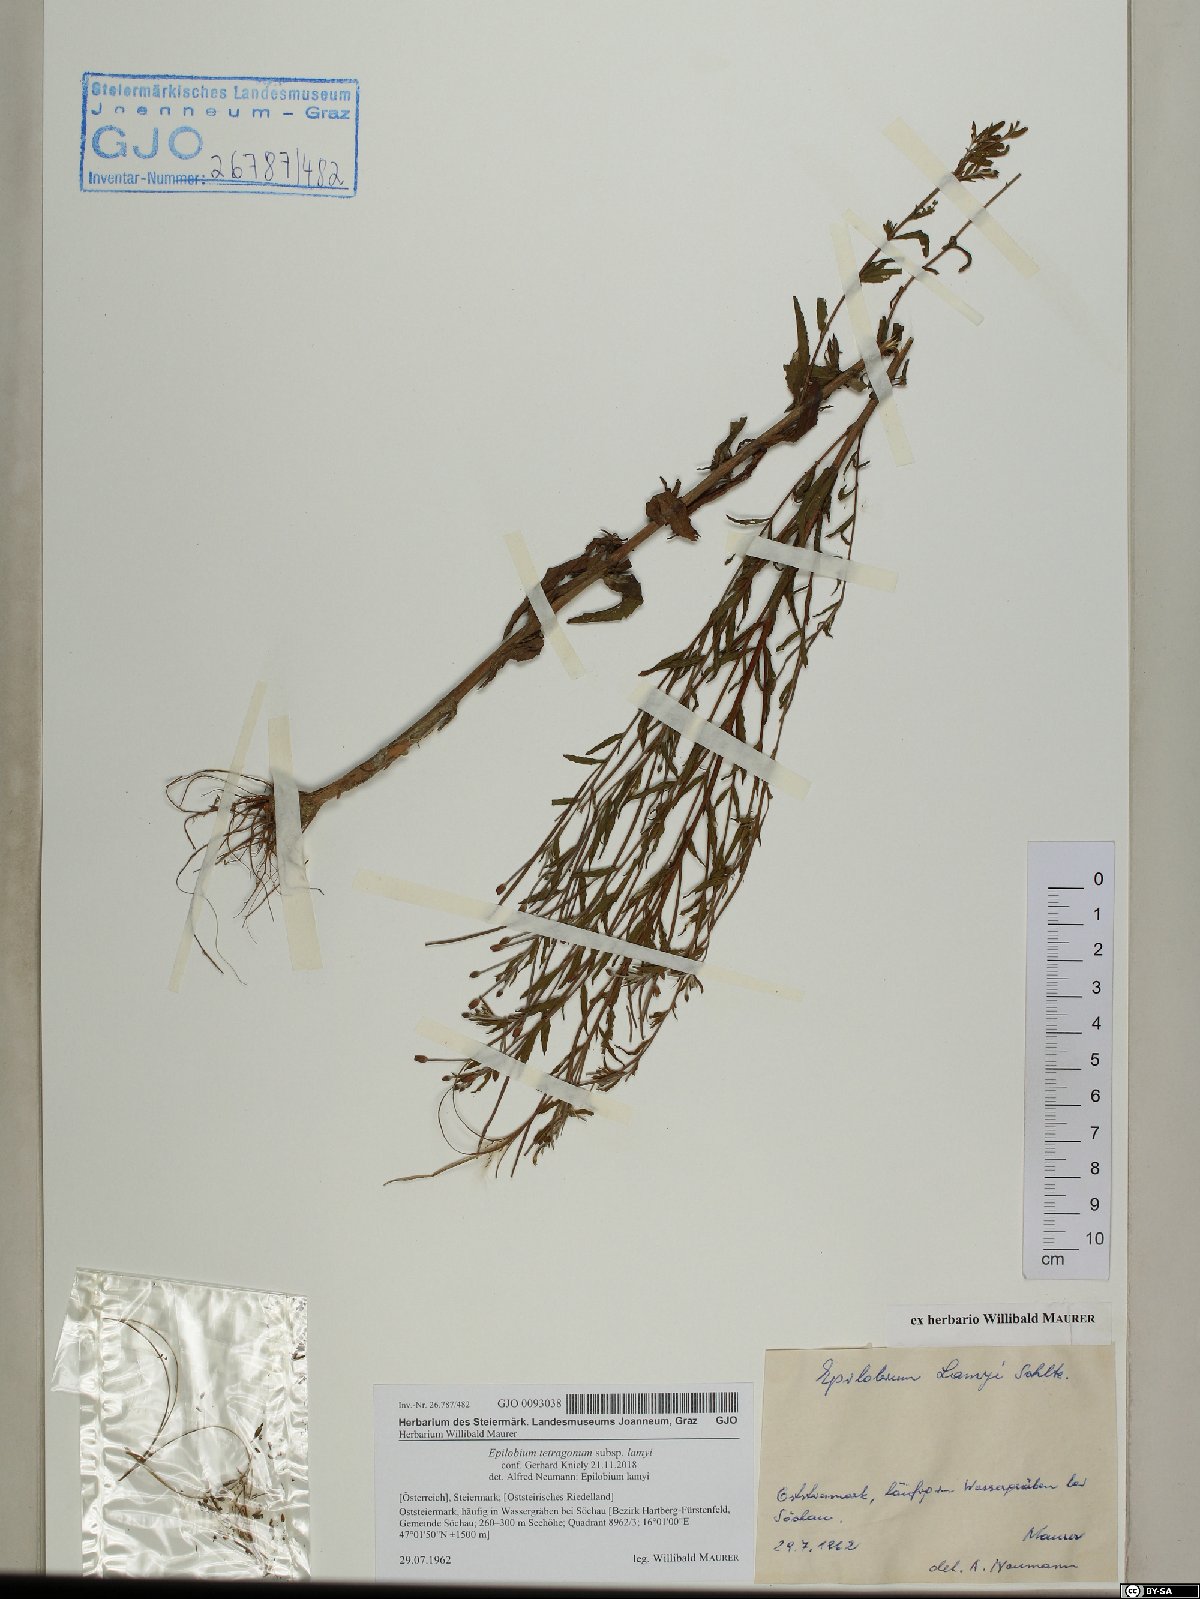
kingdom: Plantae
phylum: Tracheophyta
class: Magnoliopsida
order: Myrtales
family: Onagraceae
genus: Epilobium
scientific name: Epilobium lamyi
